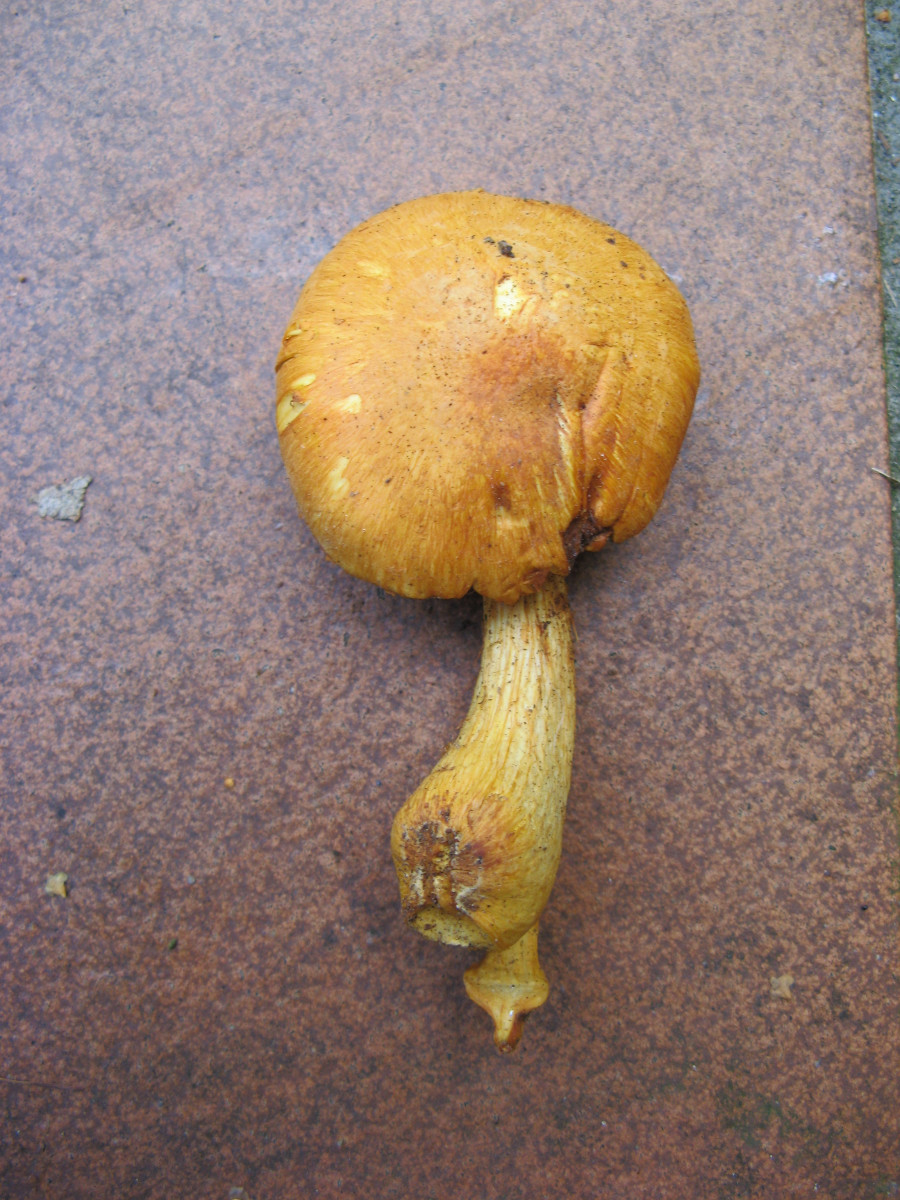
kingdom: Fungi
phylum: Basidiomycota
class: Agaricomycetes
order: Agaricales
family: Hymenogastraceae
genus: Gymnopilus
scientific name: Gymnopilus spectabilis
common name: fibret flammehat
